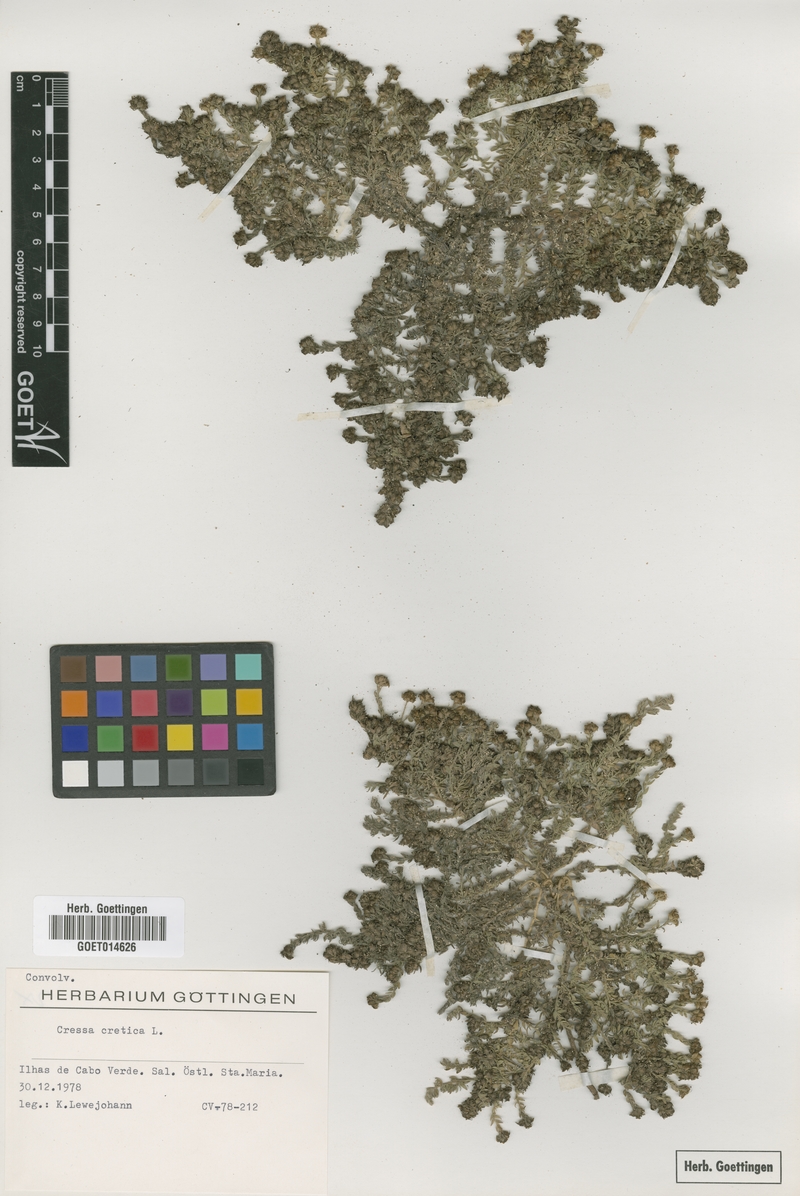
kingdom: Plantae
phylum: Tracheophyta
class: Magnoliopsida
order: Solanales
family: Convolvulaceae
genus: Cressa
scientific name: Cressa cretica
